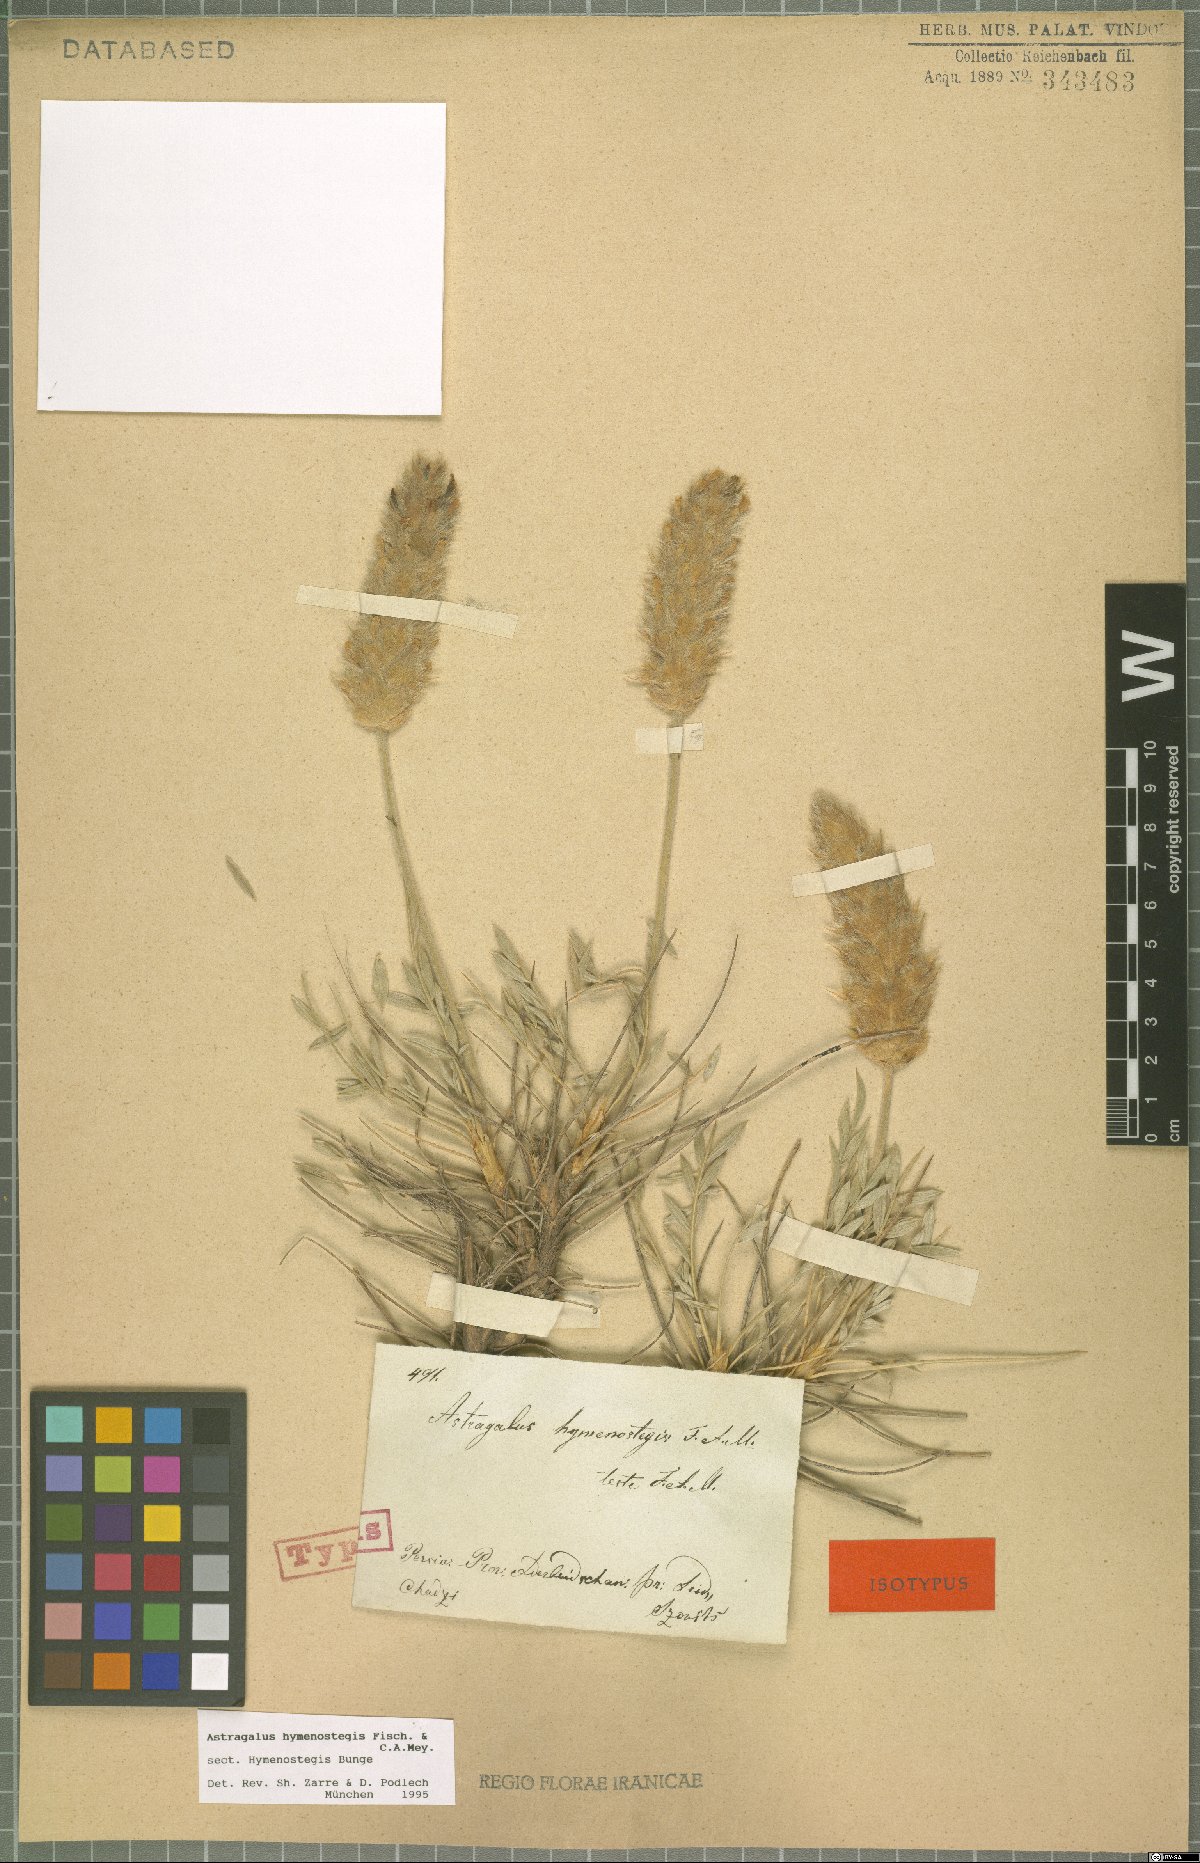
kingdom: Plantae
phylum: Tracheophyta
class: Magnoliopsida
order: Fabales
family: Fabaceae
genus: Astragalus
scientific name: Astragalus hymenostegis
